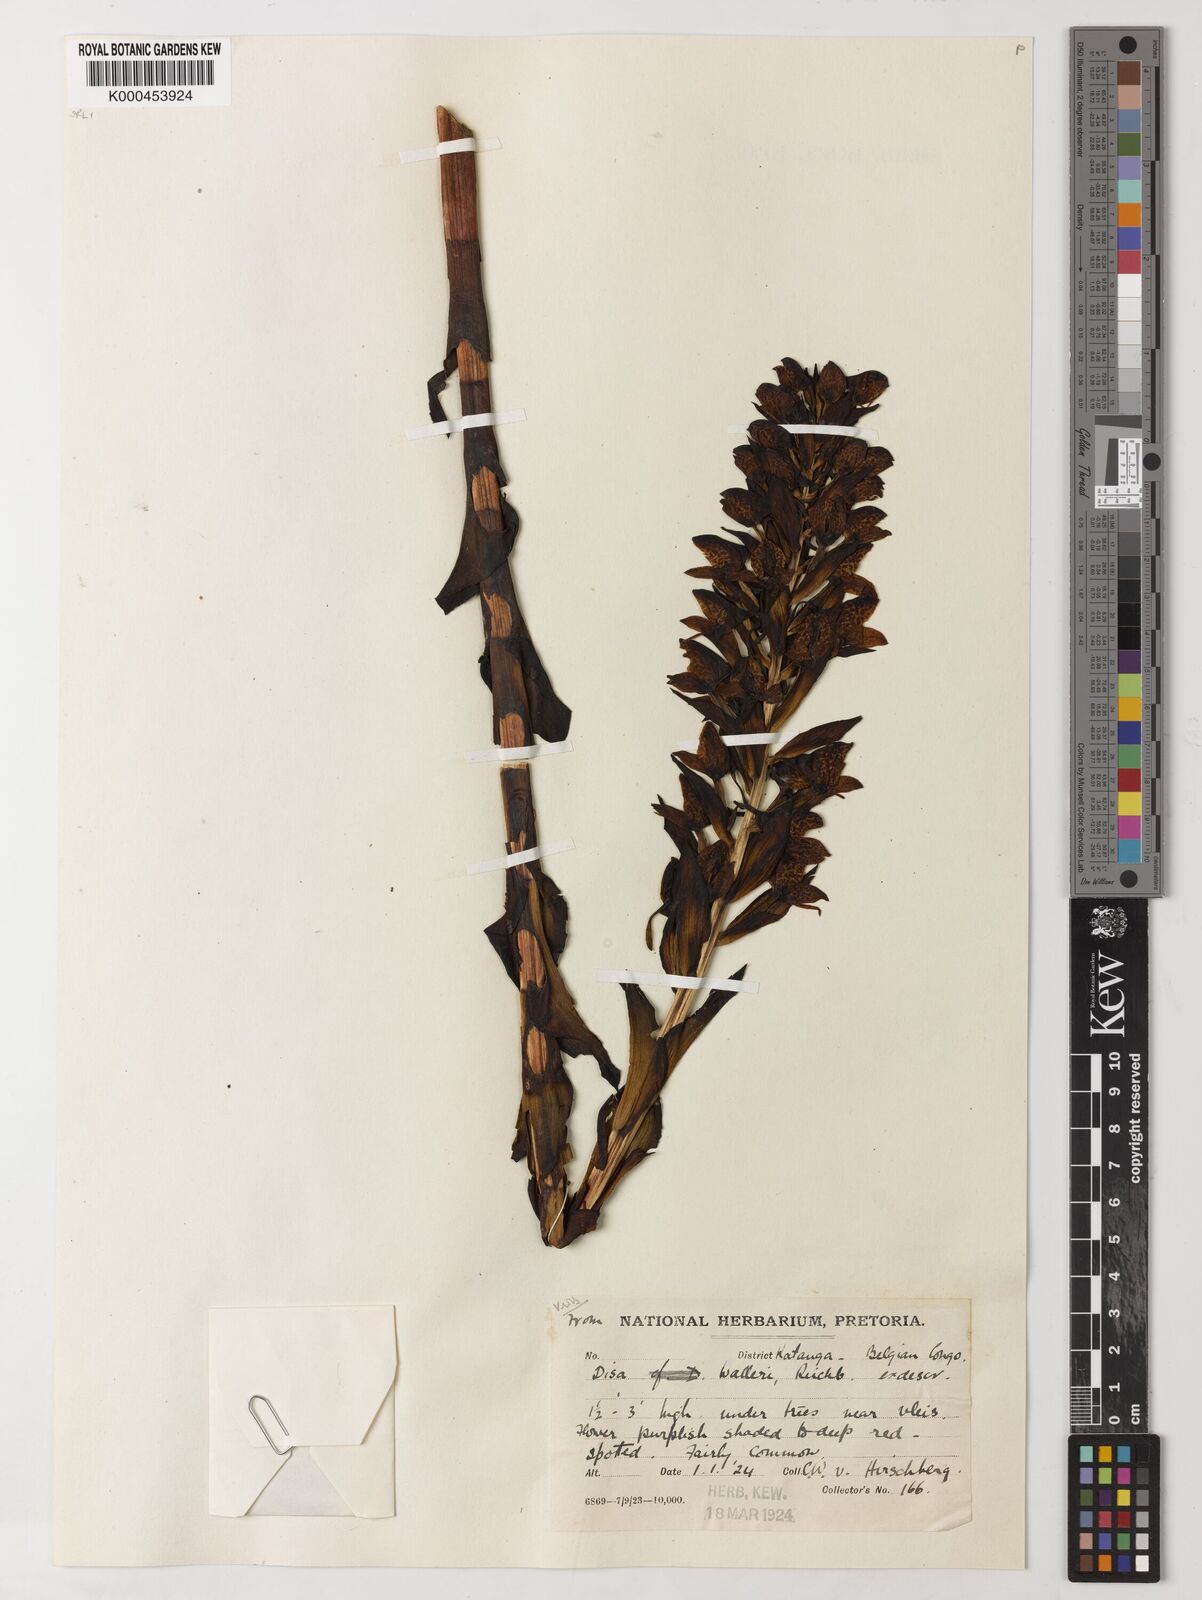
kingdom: Plantae
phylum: Tracheophyta
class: Liliopsida
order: Asparagales
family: Orchidaceae
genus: Disa
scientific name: Disa walleri
